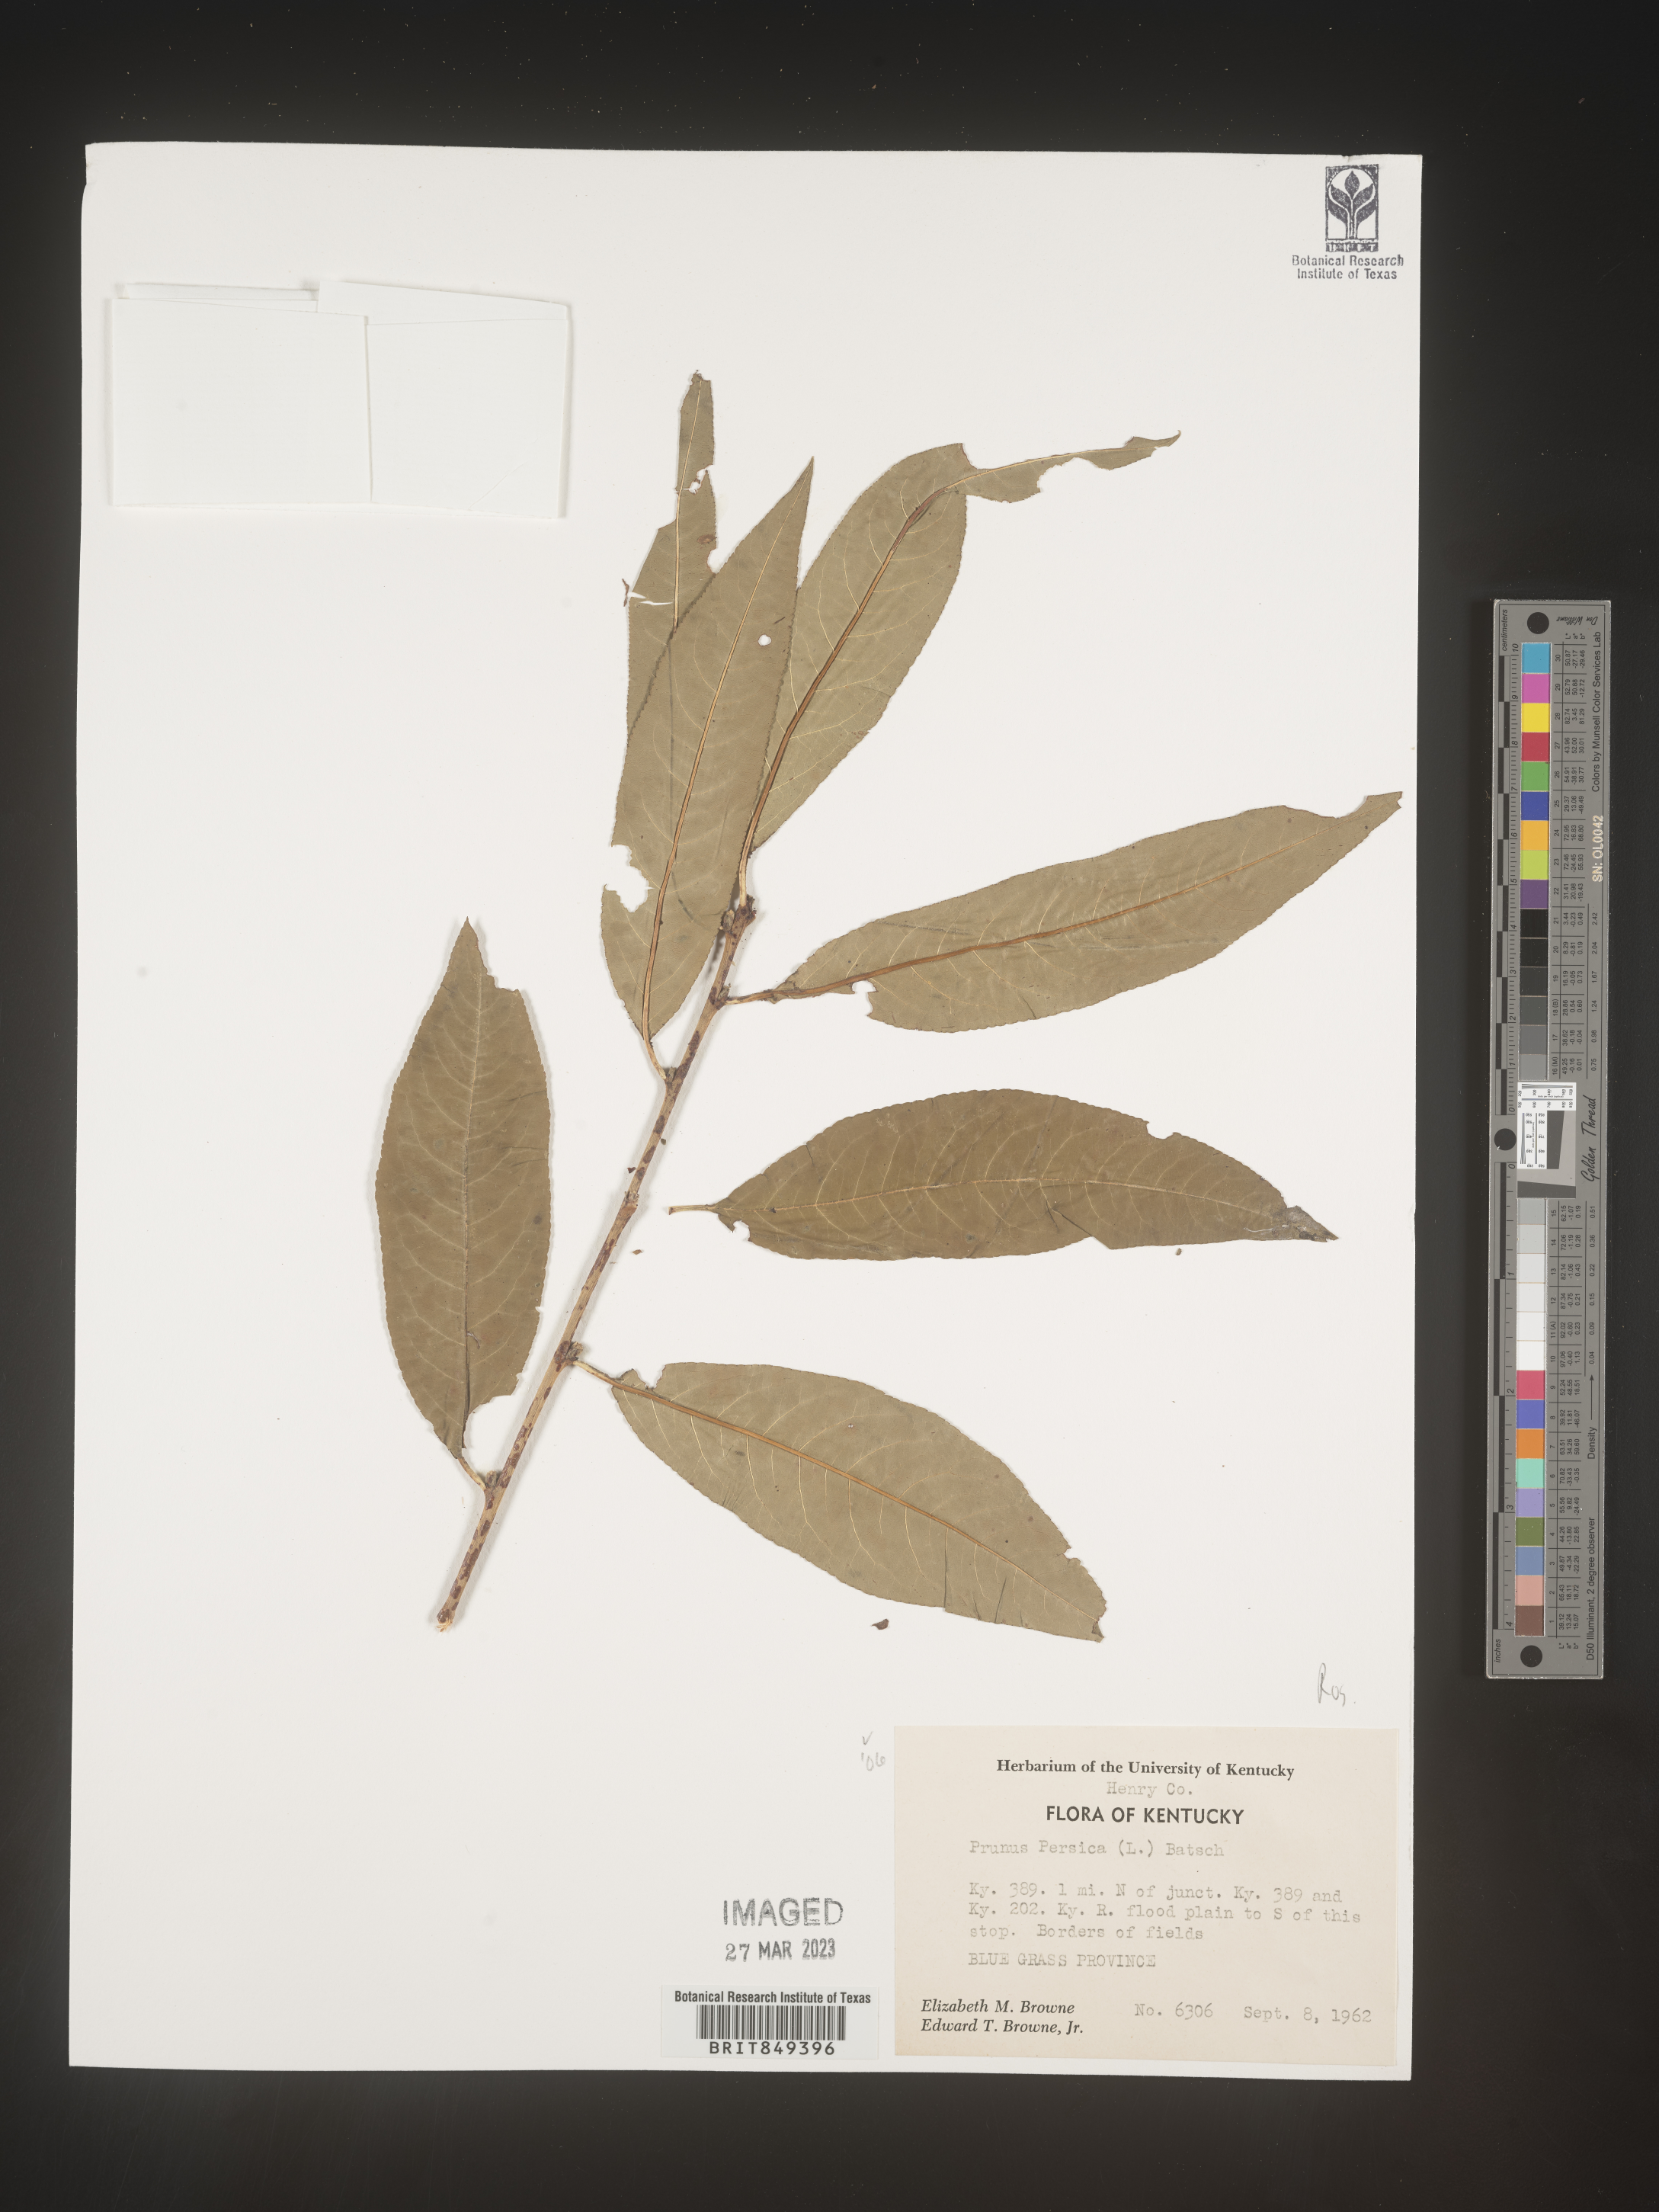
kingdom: Plantae
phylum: Tracheophyta
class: Magnoliopsida
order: Rosales
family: Rosaceae
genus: Prunus
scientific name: Prunus persica
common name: Peach
